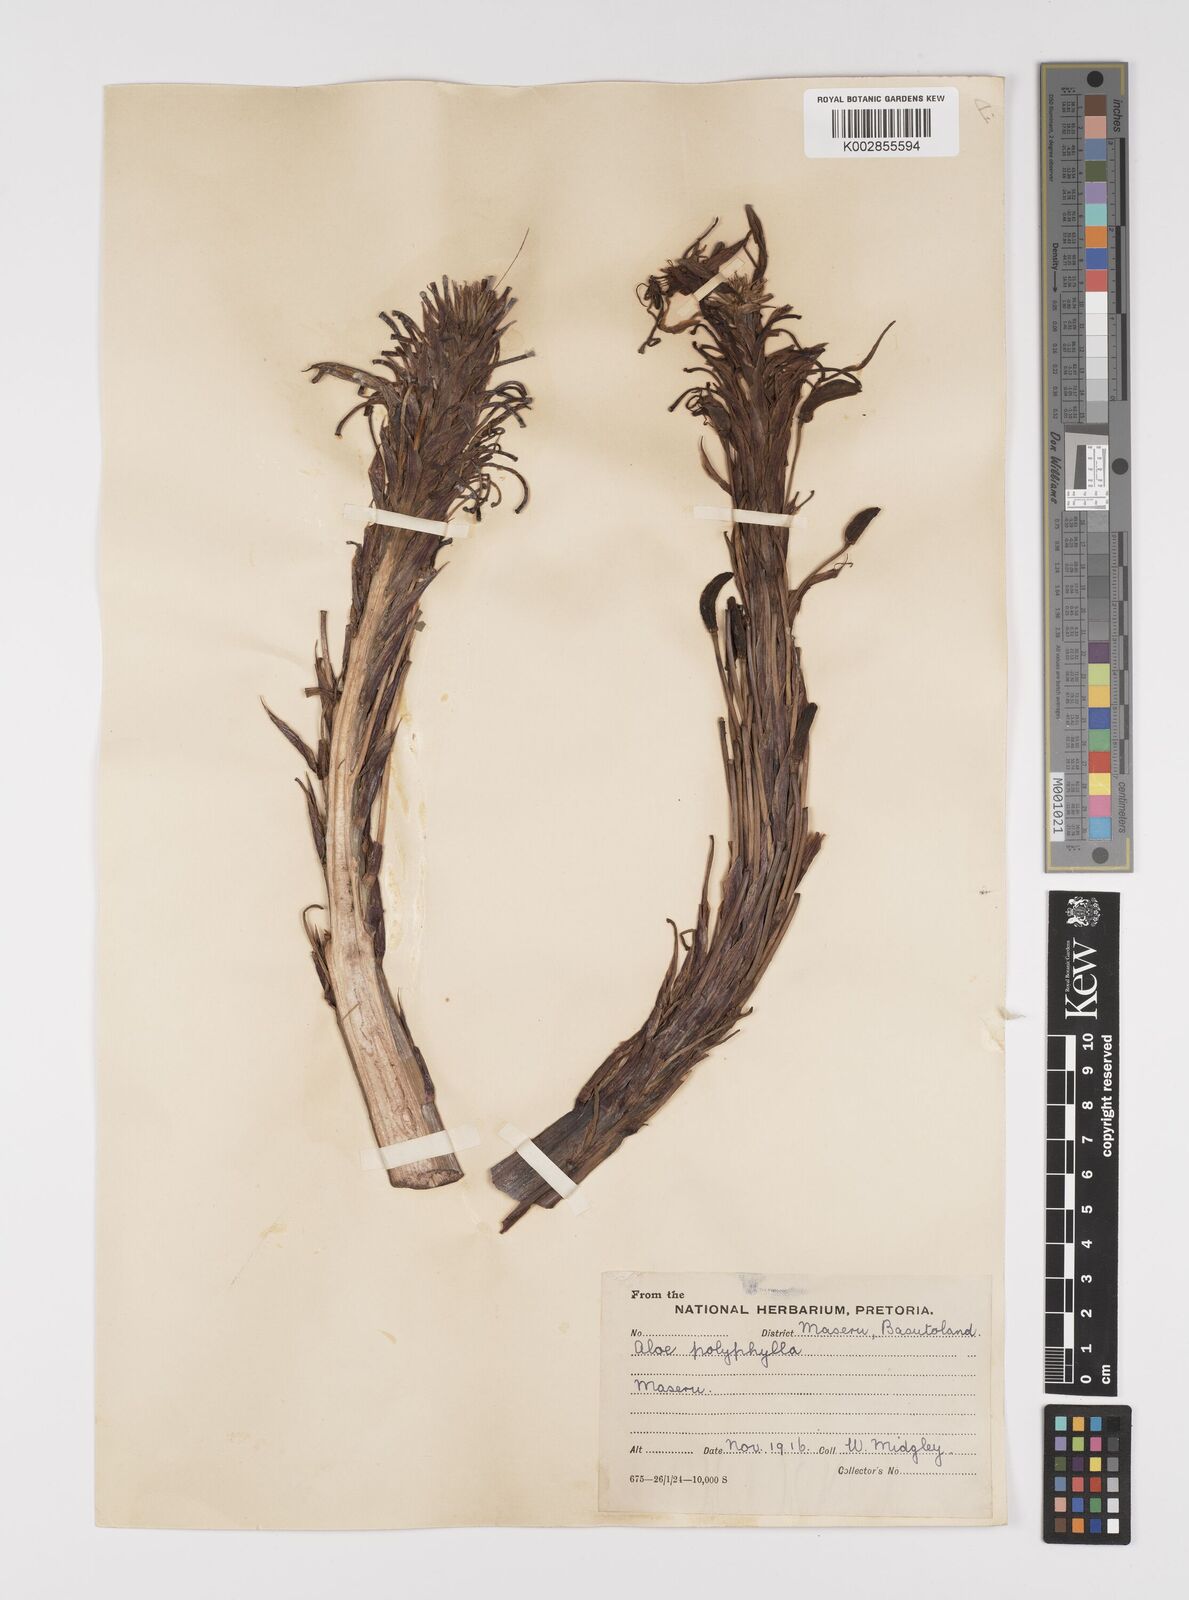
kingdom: Plantae
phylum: Tracheophyta
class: Liliopsida
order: Asparagales
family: Asphodelaceae
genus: Aloe
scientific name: Aloe polyphylla
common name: Basotoland aloe
